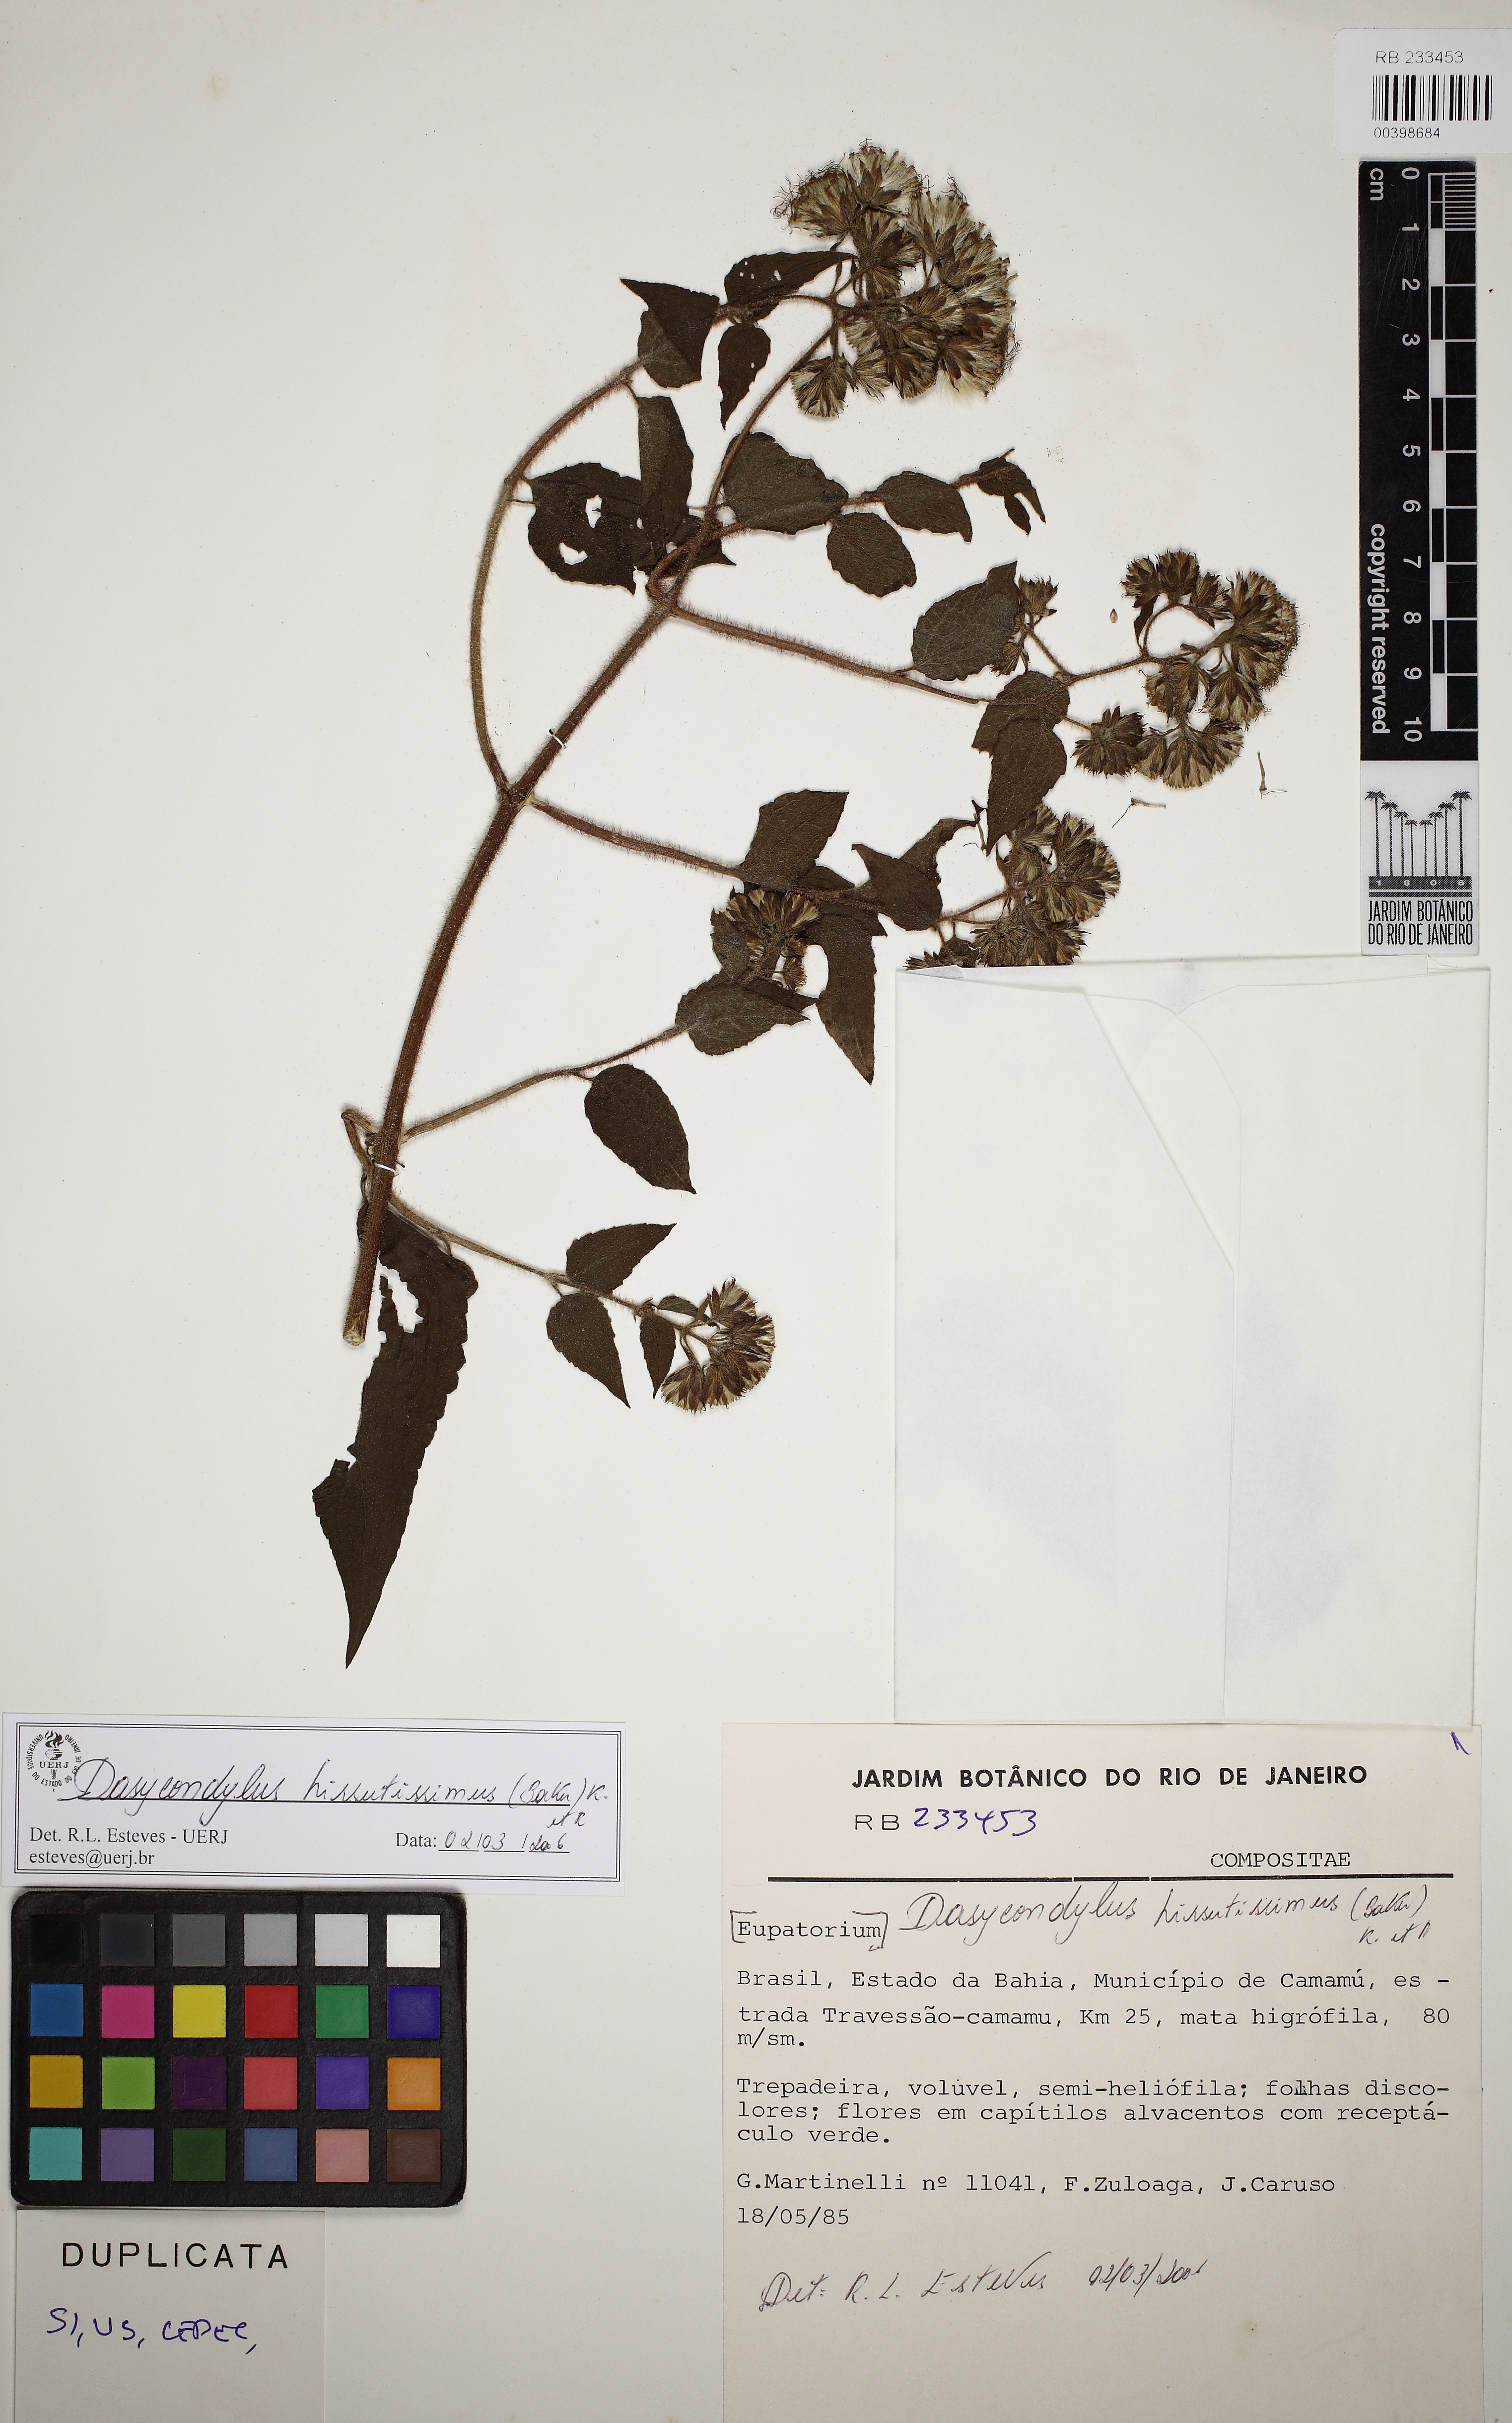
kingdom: Plantae
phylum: Tracheophyta
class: Magnoliopsida
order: Asterales
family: Asteraceae
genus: Dasycondylus
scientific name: Dasycondylus hirsutissimus
